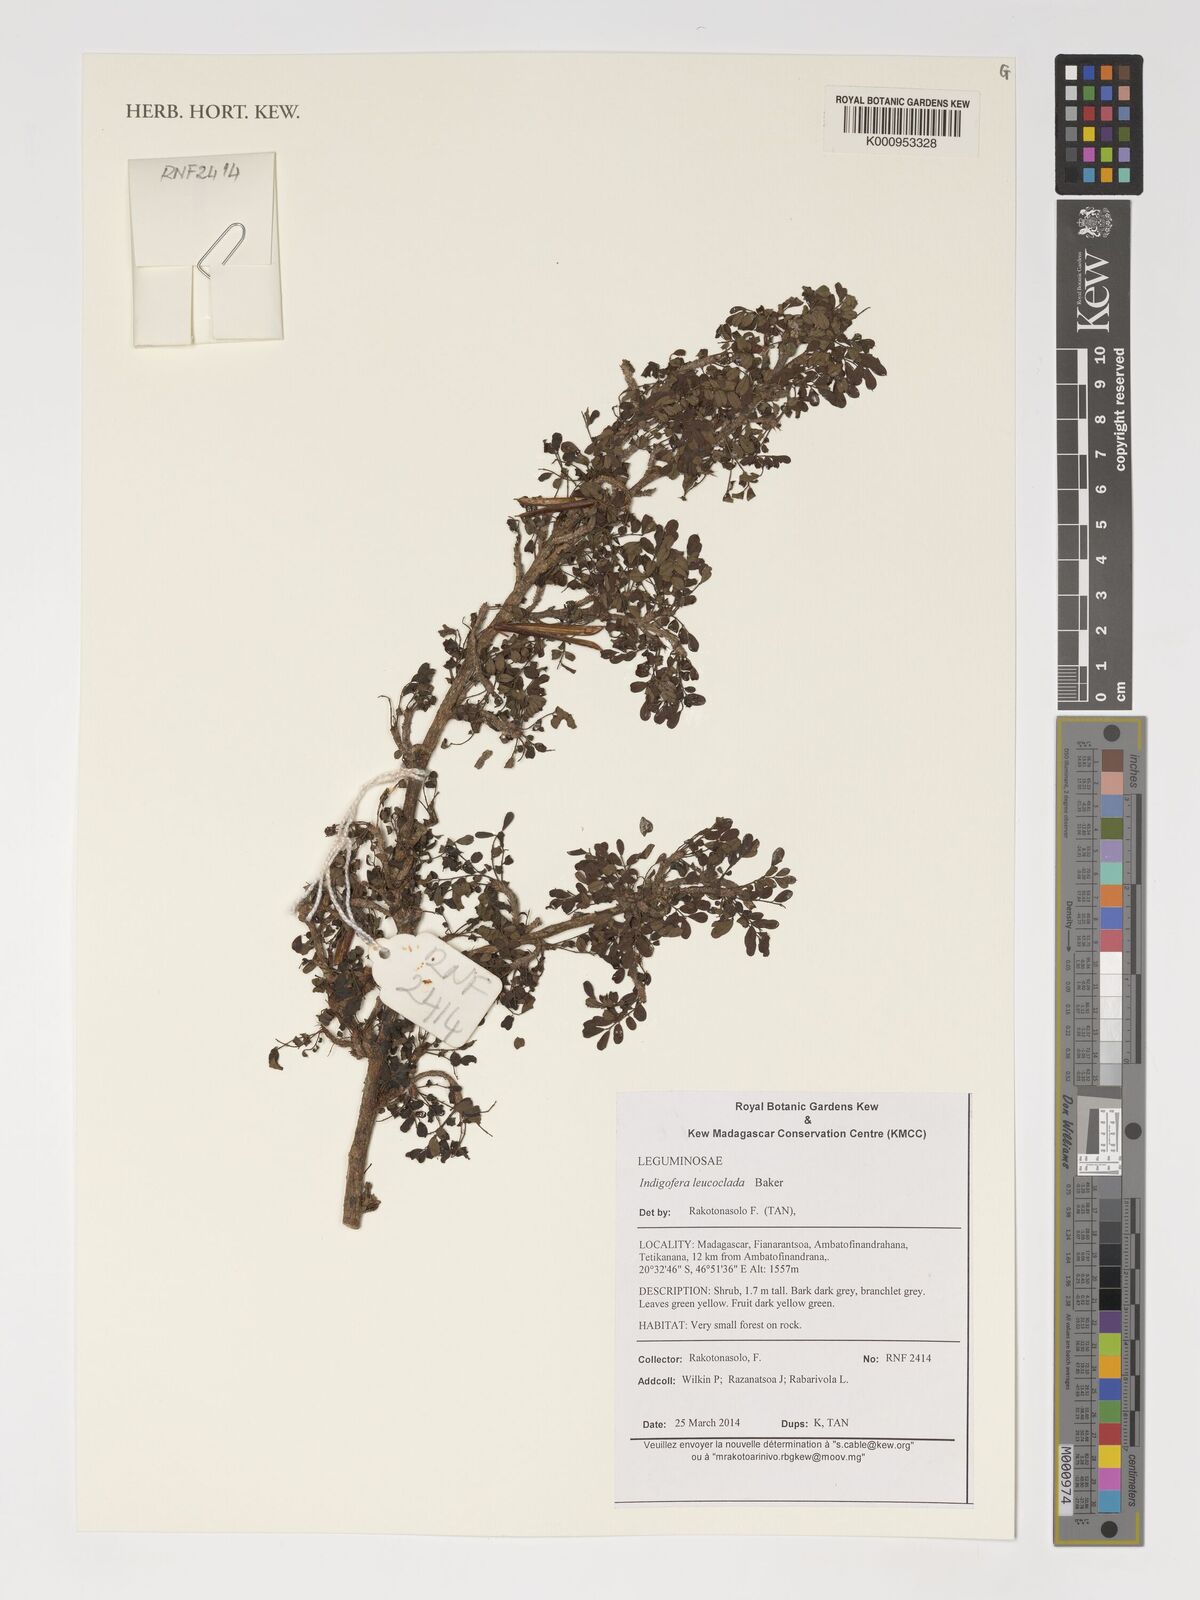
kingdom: Plantae
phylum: Tracheophyta
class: Magnoliopsida
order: Fabales
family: Fabaceae
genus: Indigofera
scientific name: Indigofera leucoclada
